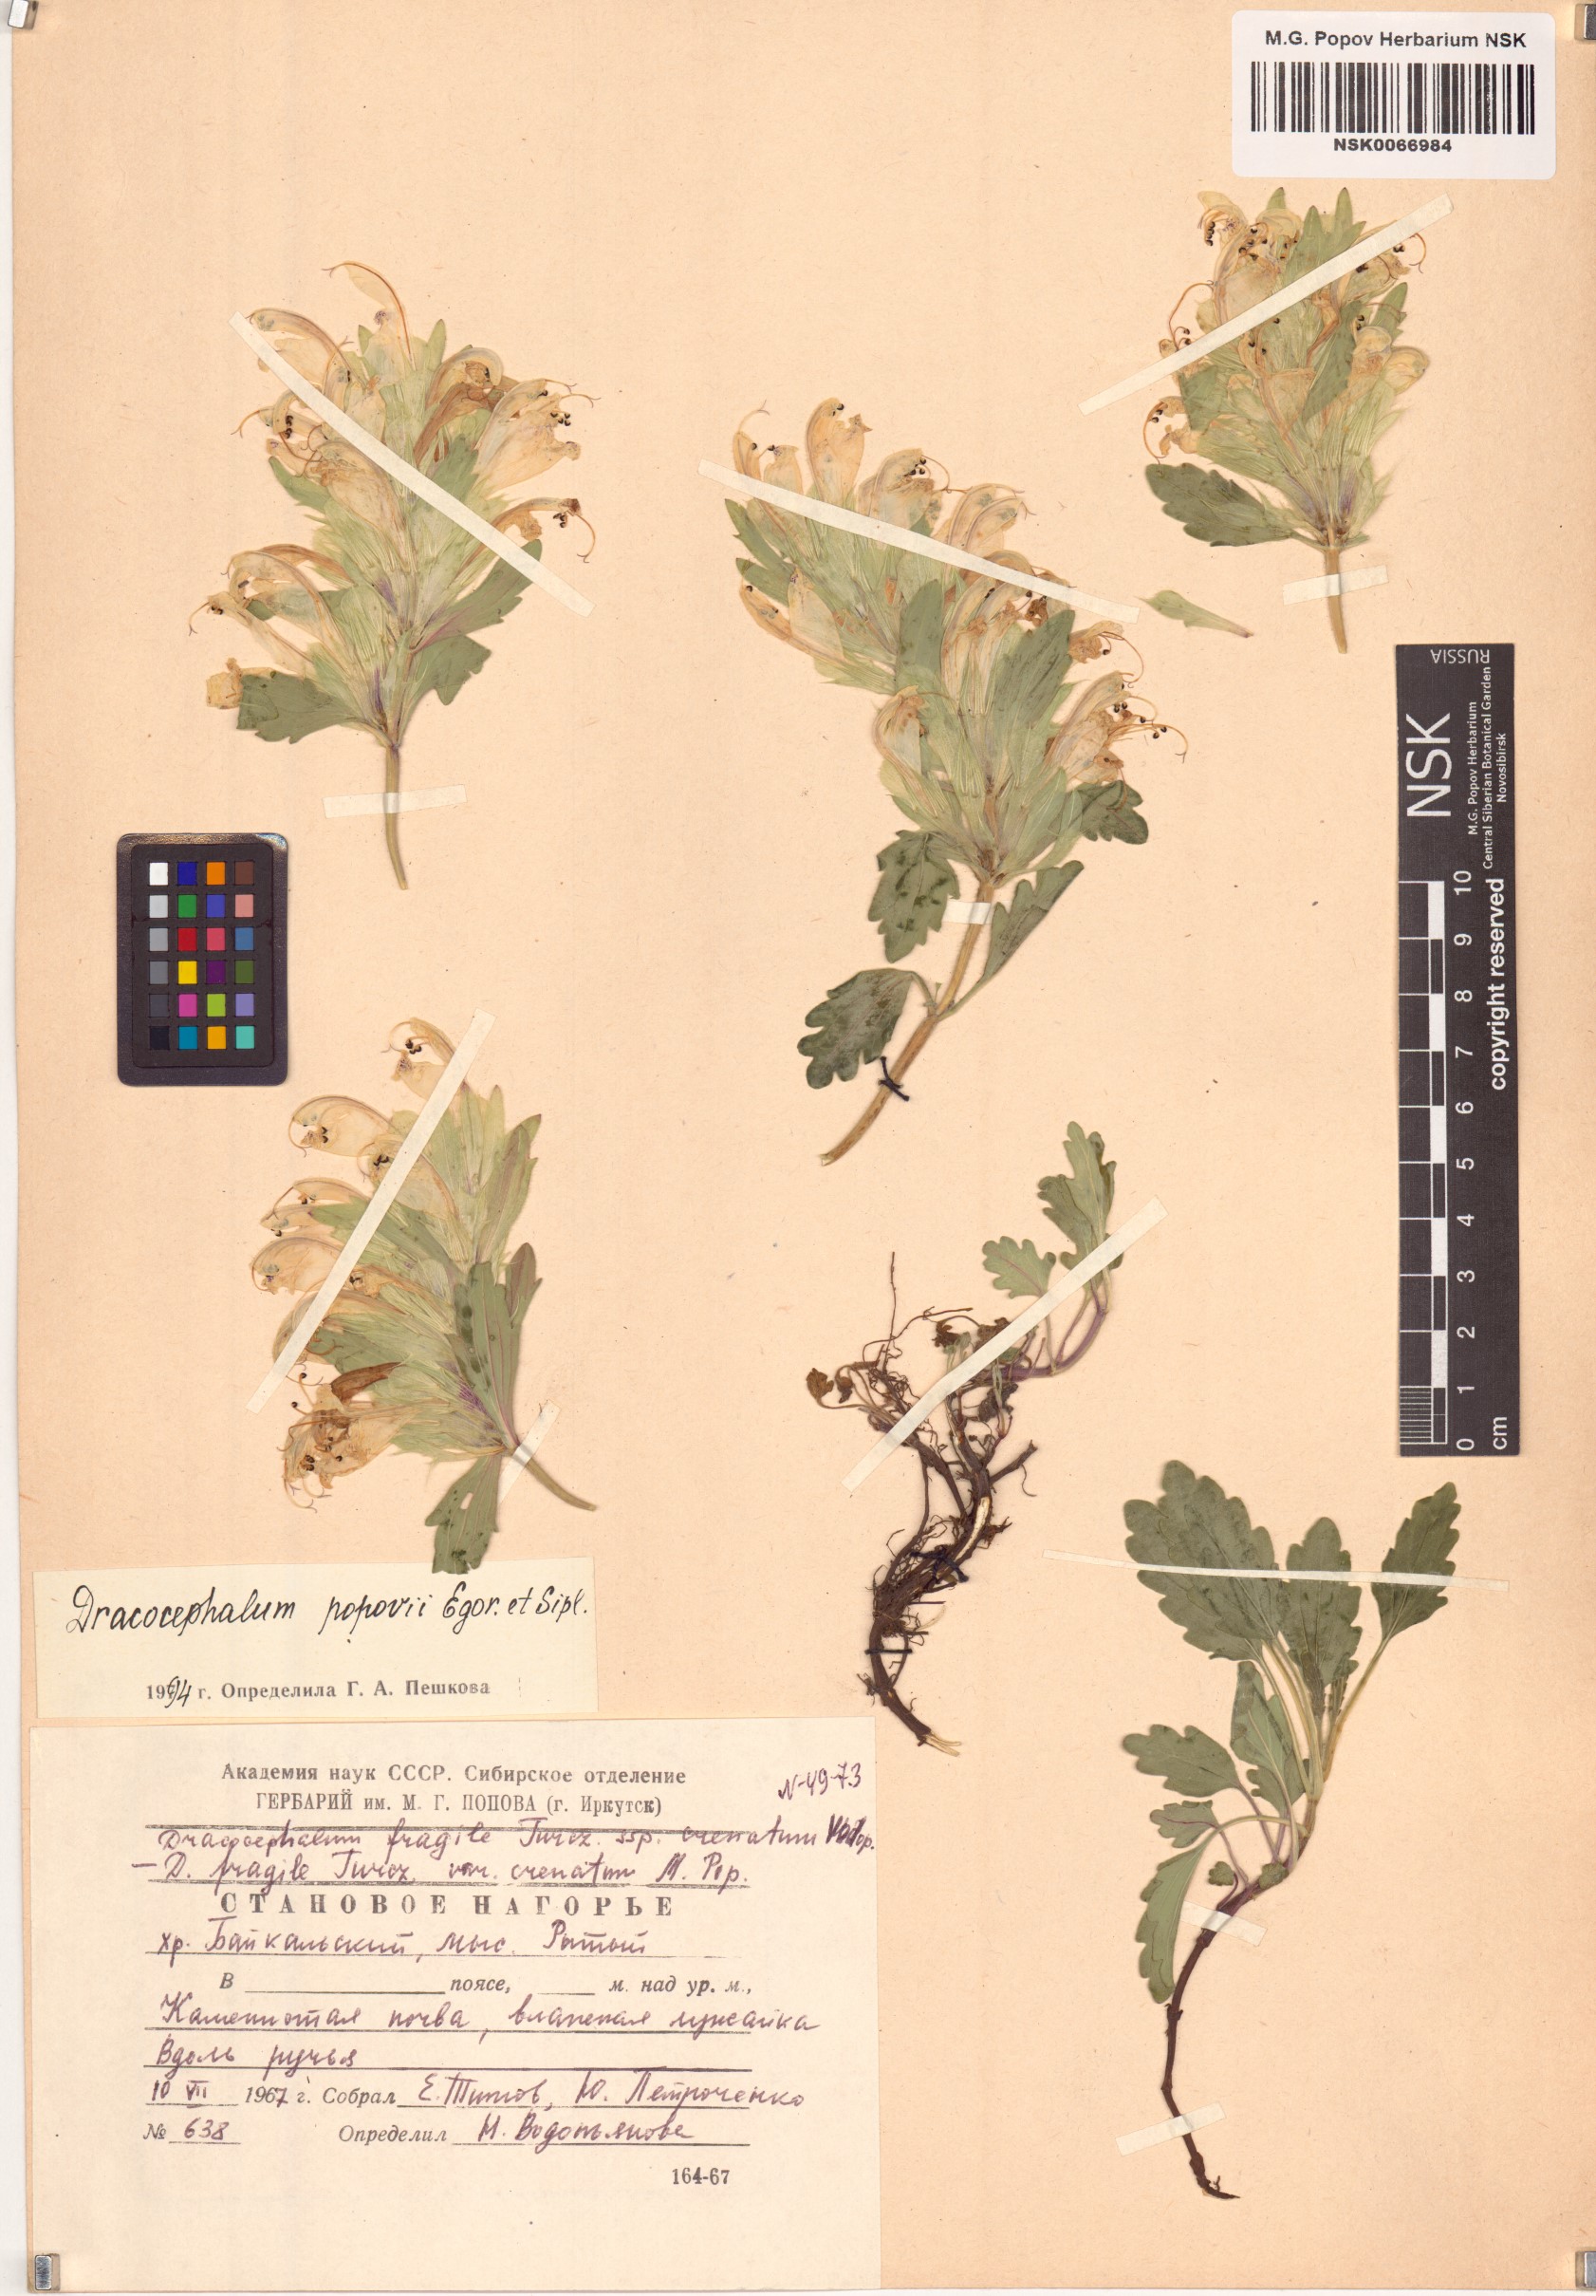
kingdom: Plantae
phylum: Tracheophyta
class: Magnoliopsida
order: Lamiales
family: Lamiaceae
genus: Dracocephalum
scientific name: Dracocephalum popovii
